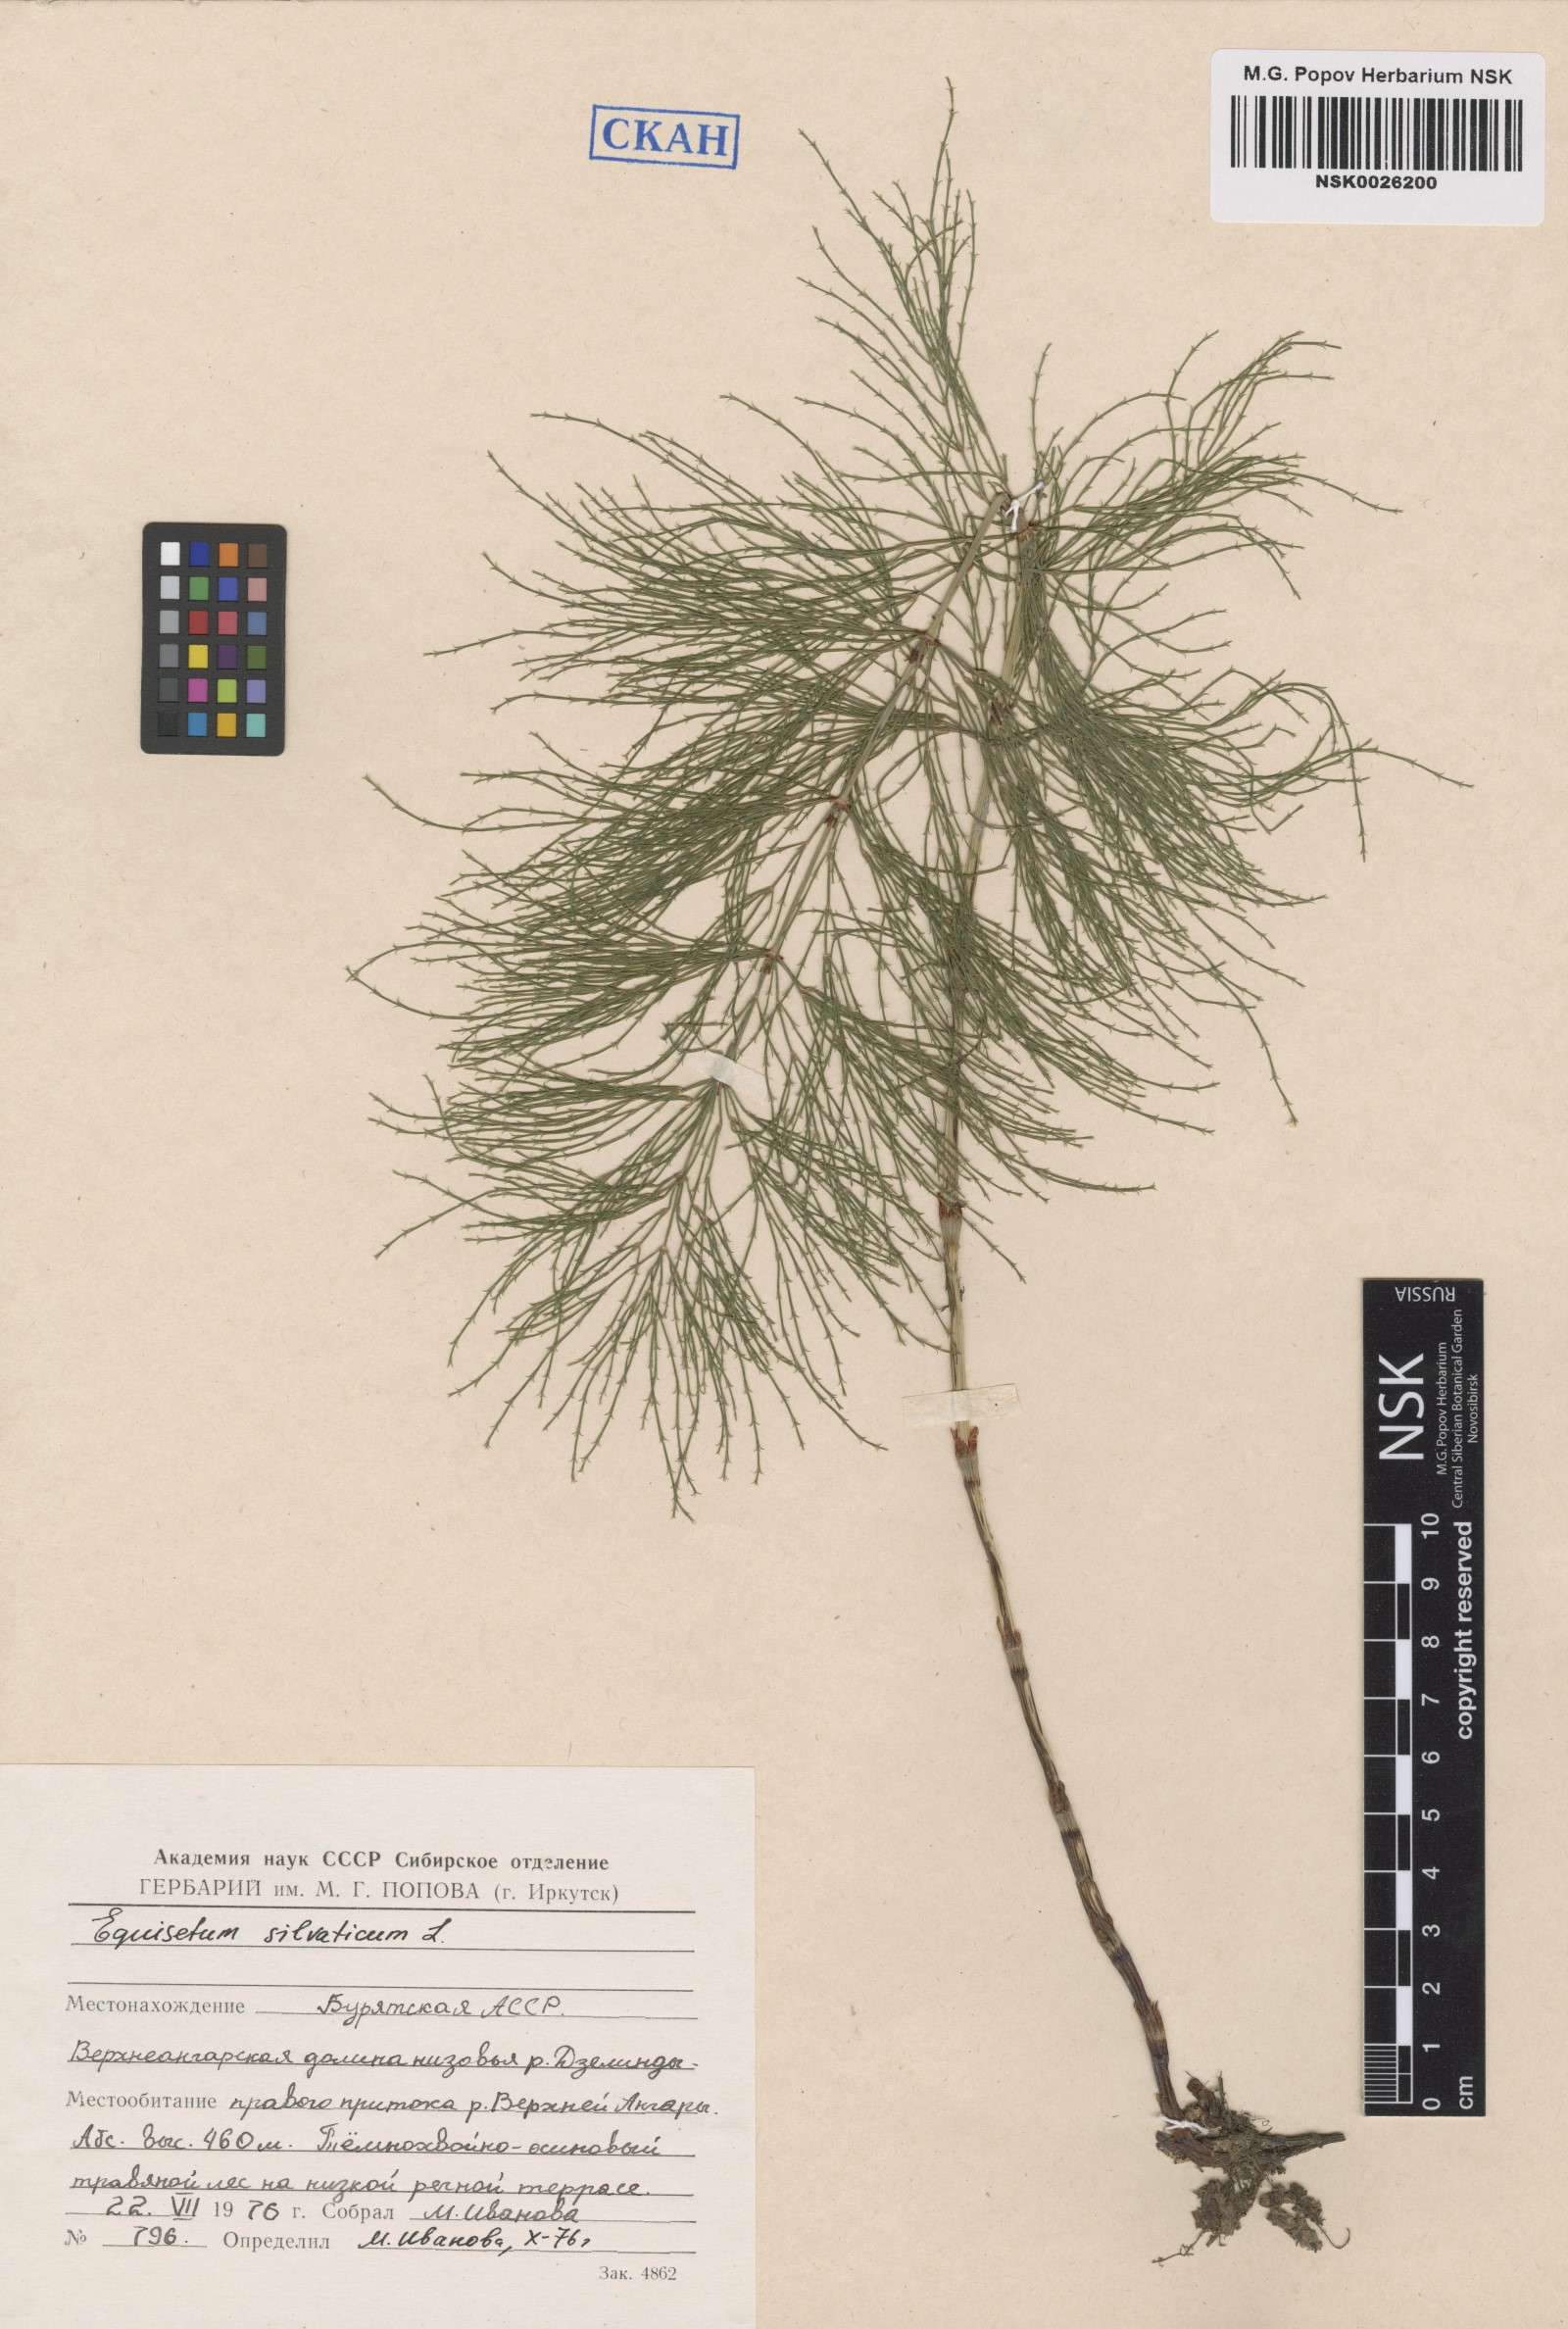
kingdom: Plantae
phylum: Tracheophyta
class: Polypodiopsida
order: Equisetales
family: Equisetaceae
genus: Equisetum
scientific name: Equisetum sylvaticum
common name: Wood horsetail
